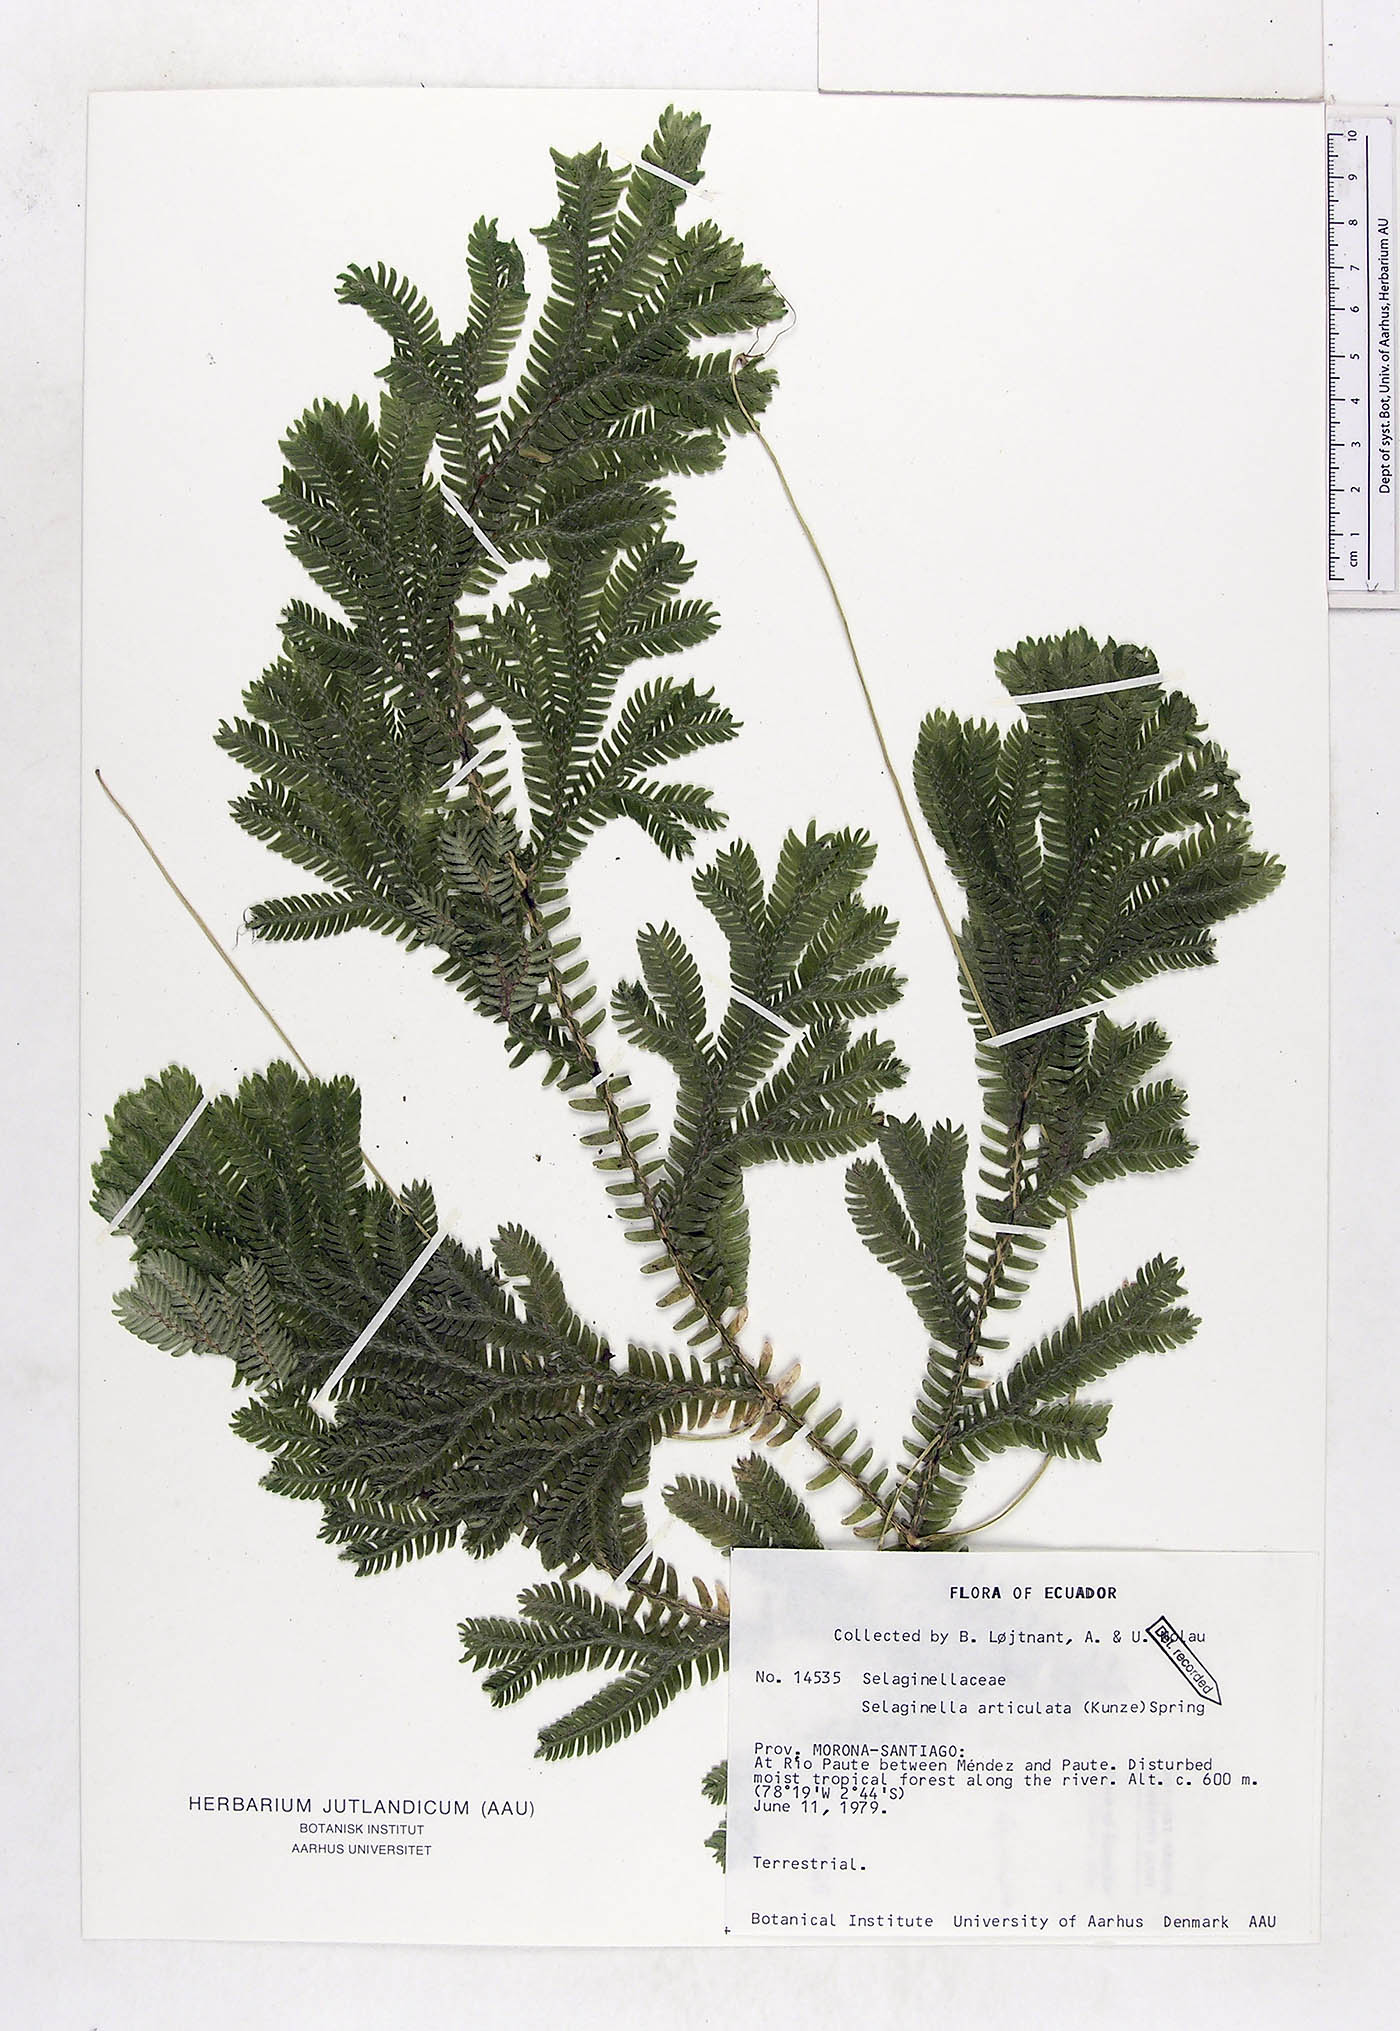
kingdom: Plantae
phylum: Tracheophyta
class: Lycopodiopsida
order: Selaginellales
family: Selaginellaceae
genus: Selaginella
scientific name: Selaginella articulata
